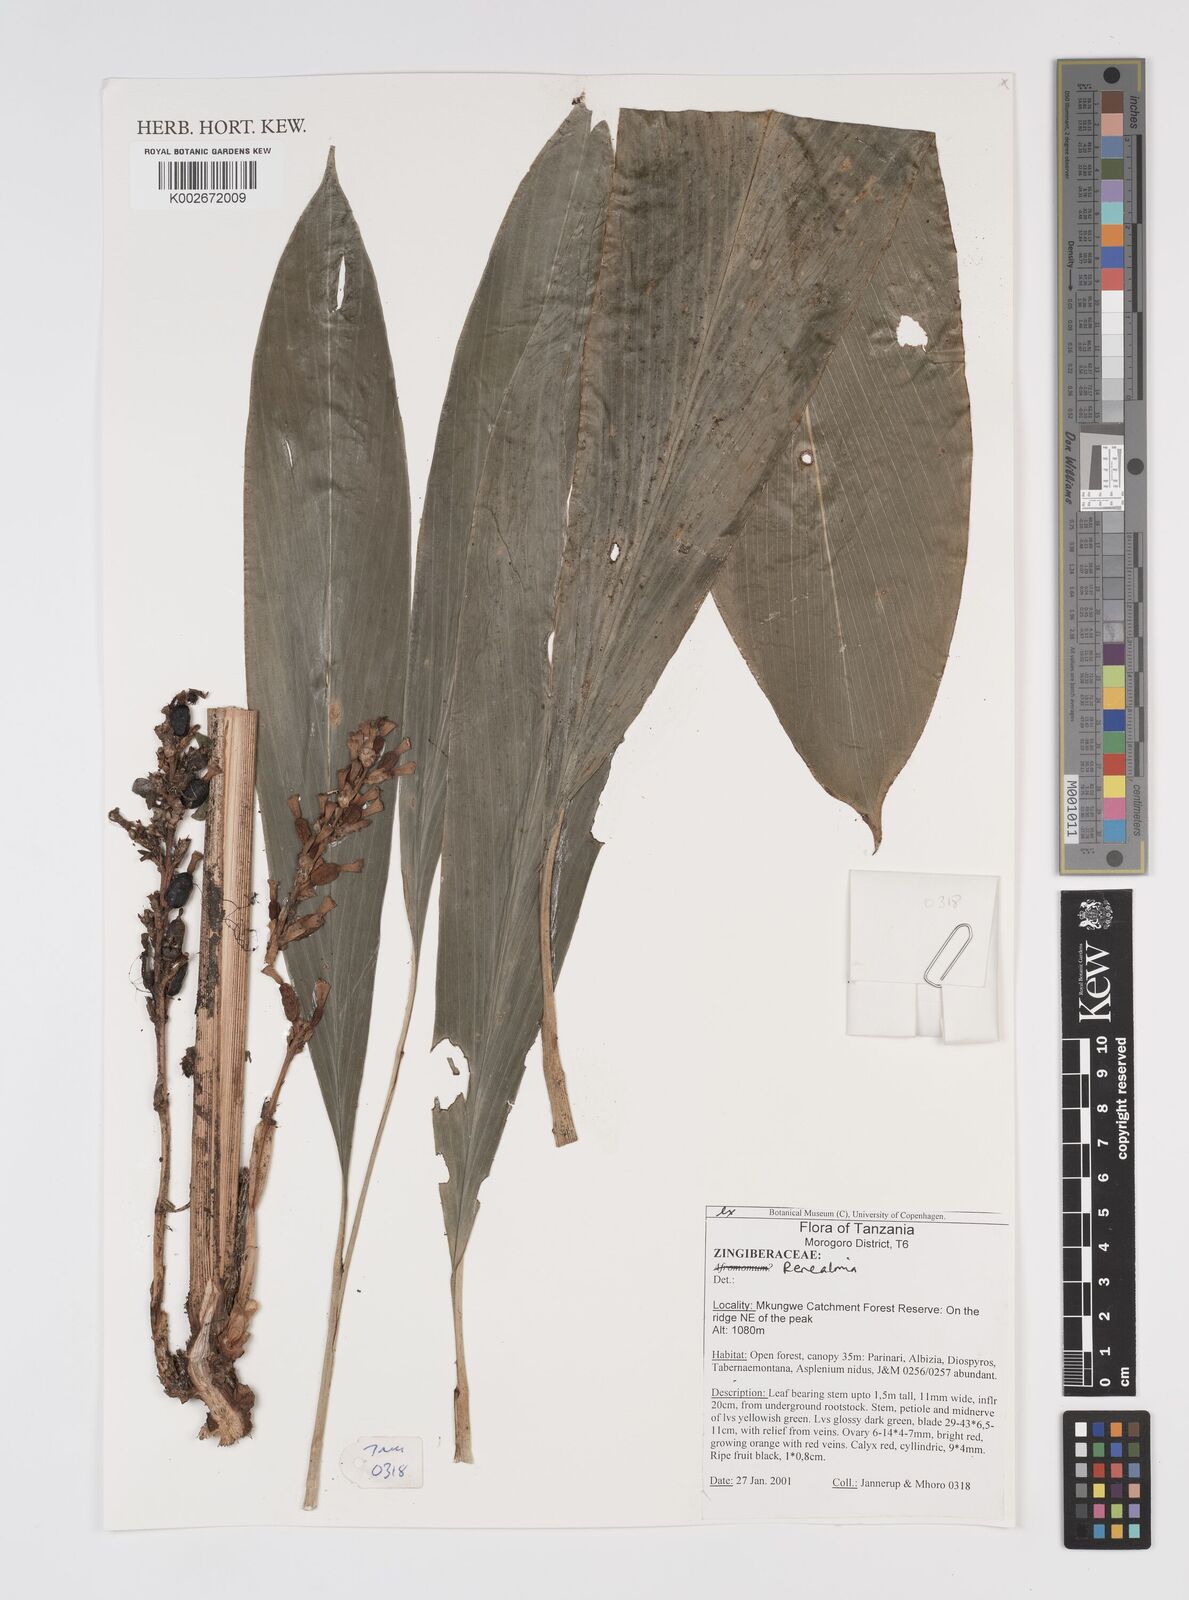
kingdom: Plantae
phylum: Tracheophyta
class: Liliopsida
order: Zingiberales
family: Zingiberaceae
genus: Renealmia
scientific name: Renealmia
